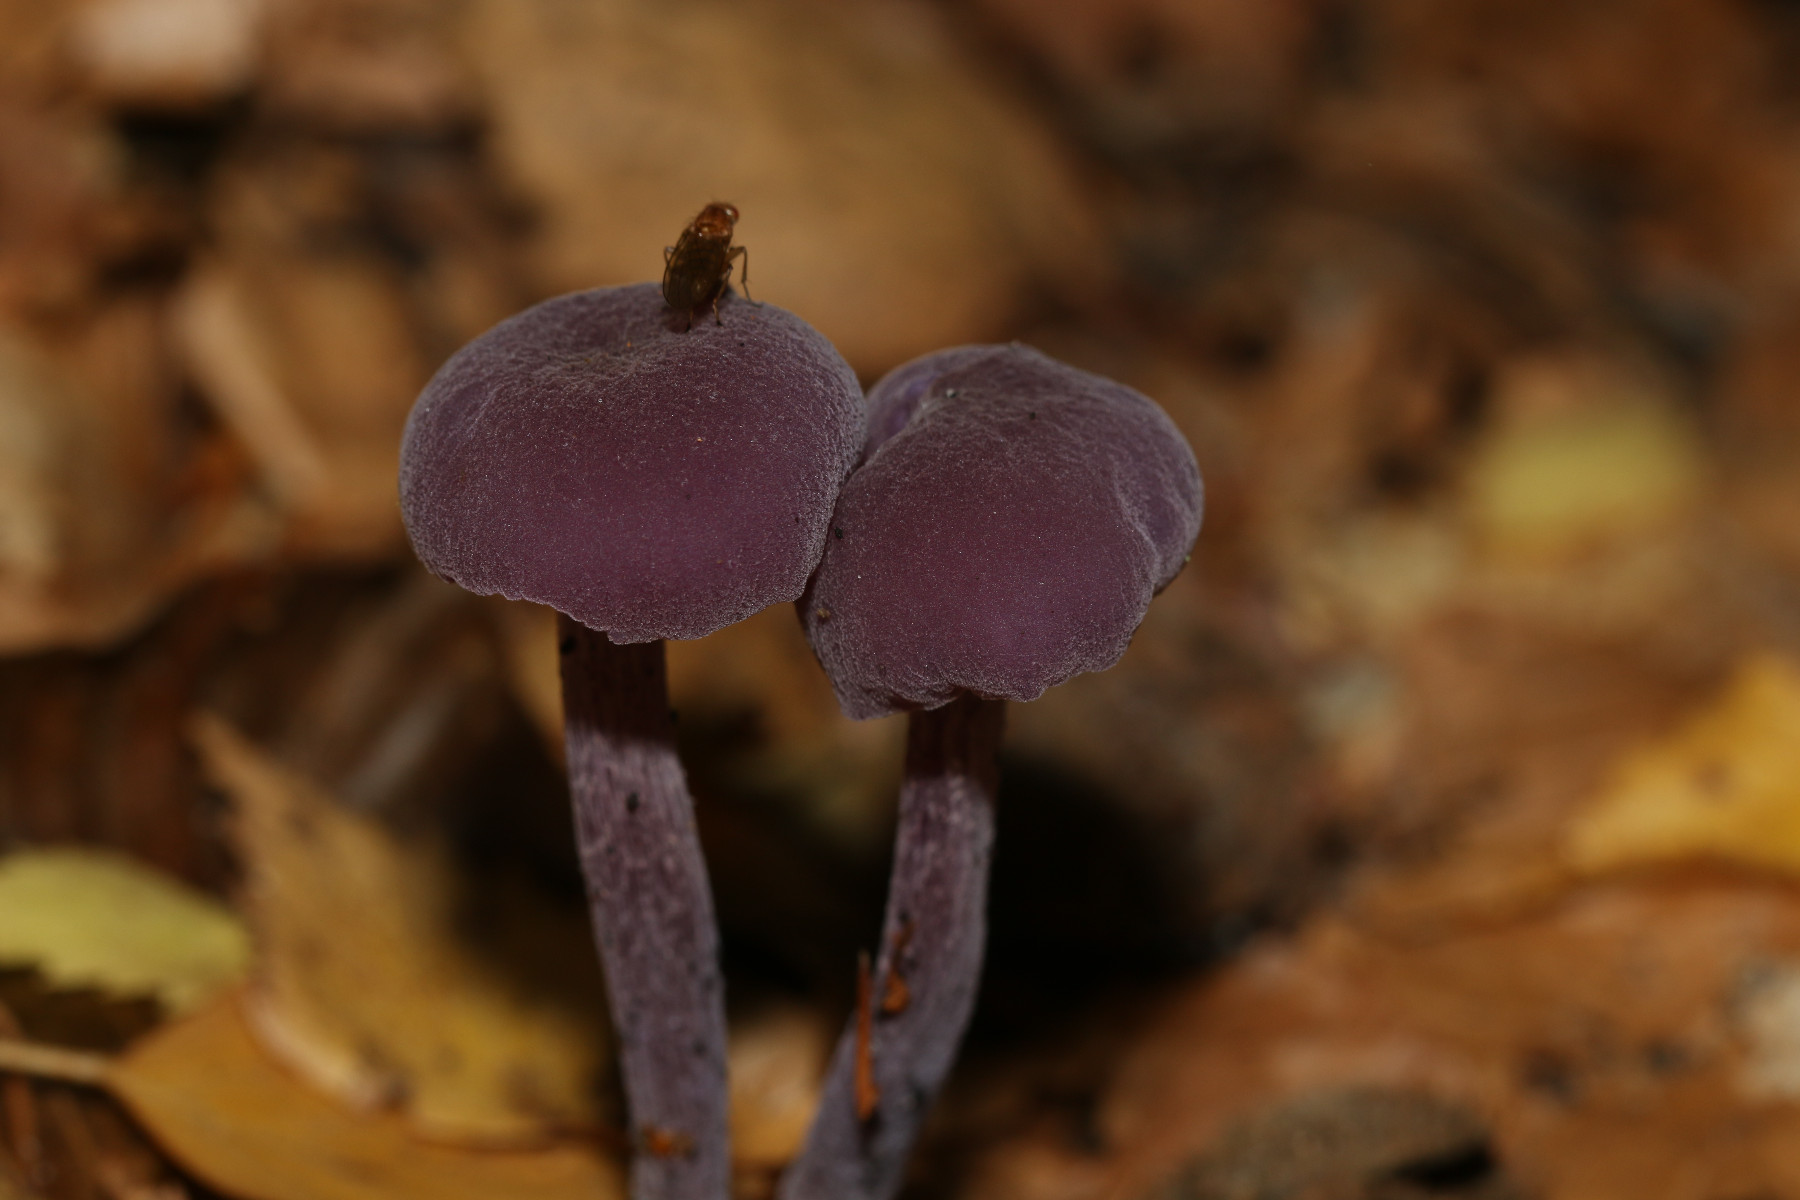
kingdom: Fungi
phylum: Basidiomycota
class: Agaricomycetes
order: Agaricales
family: Hydnangiaceae
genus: Laccaria
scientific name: Laccaria amethystina
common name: violet ametysthat
